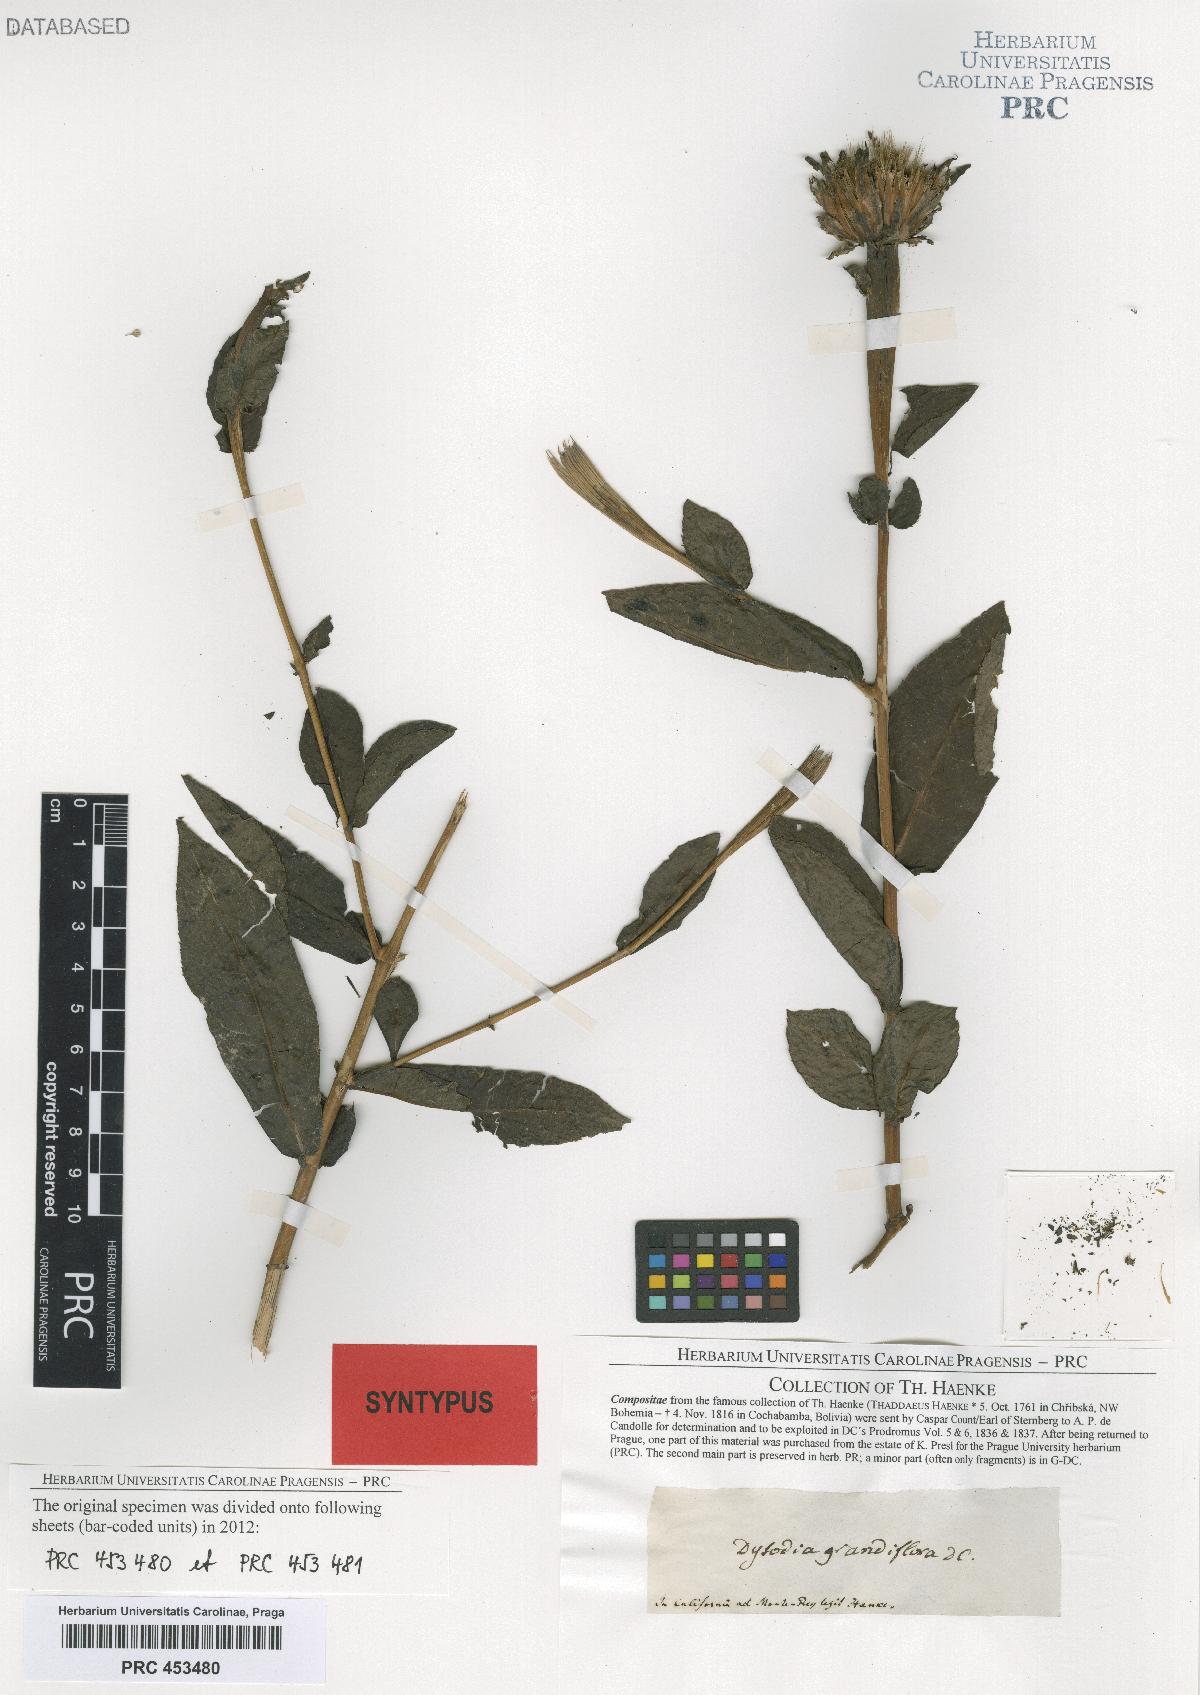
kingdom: Plantae
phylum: Tracheophyta
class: Magnoliopsida
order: Asterales
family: Asteraceae
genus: Boeberoides
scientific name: Boeberoides grandiflora
